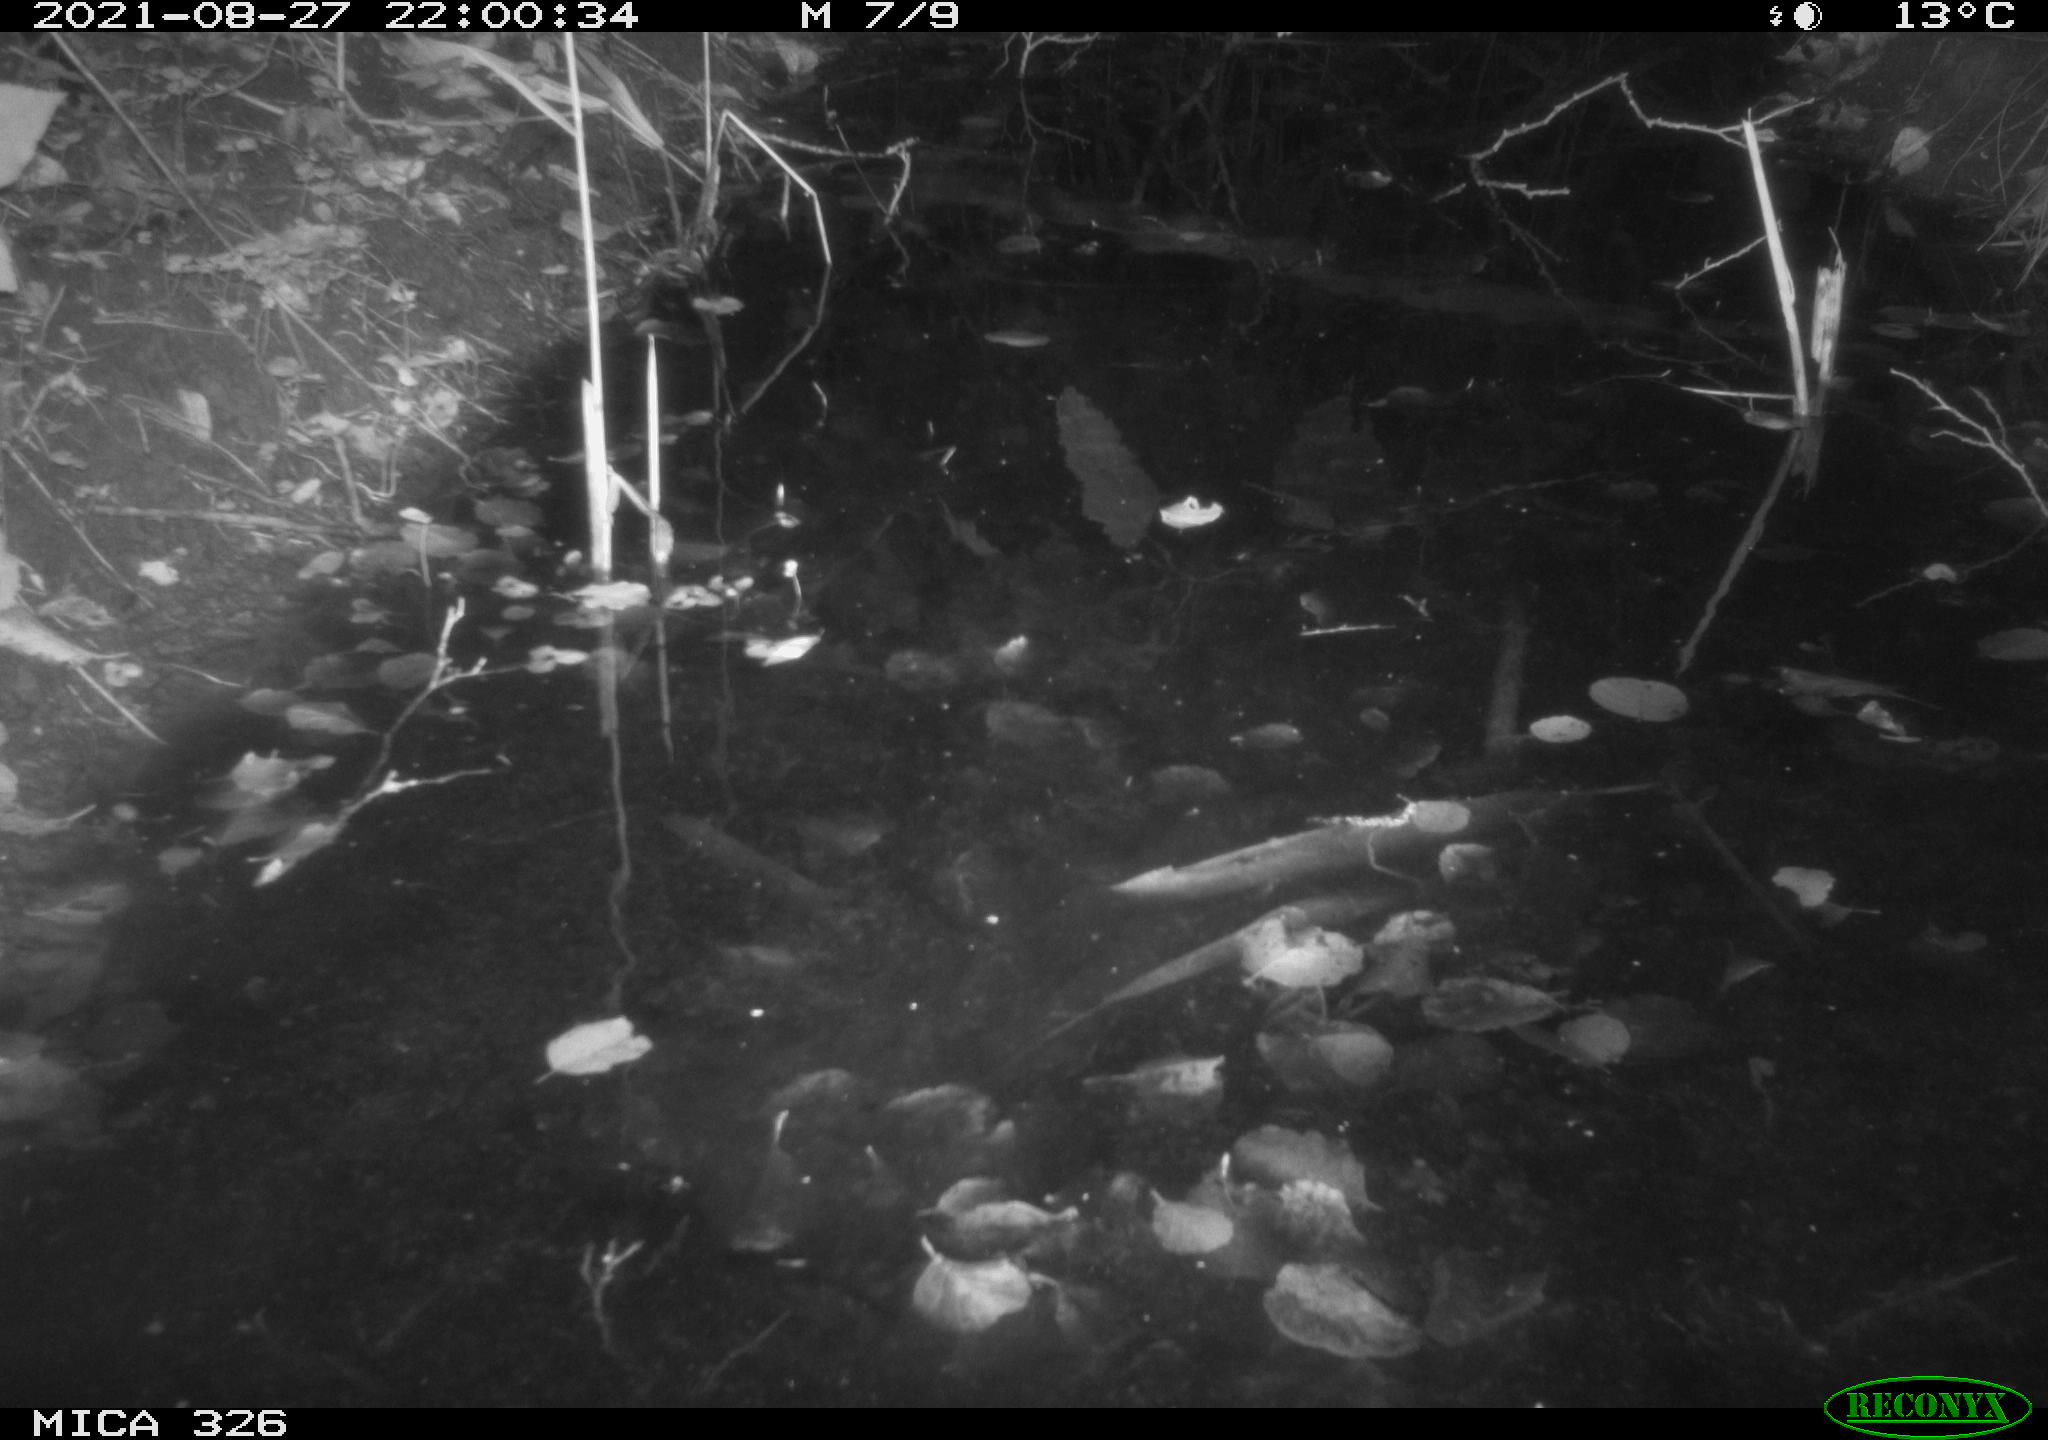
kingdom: Animalia
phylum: Chordata
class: Mammalia
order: Rodentia
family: Myocastoridae
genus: Myocastor
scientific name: Myocastor coypus
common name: Coypu
